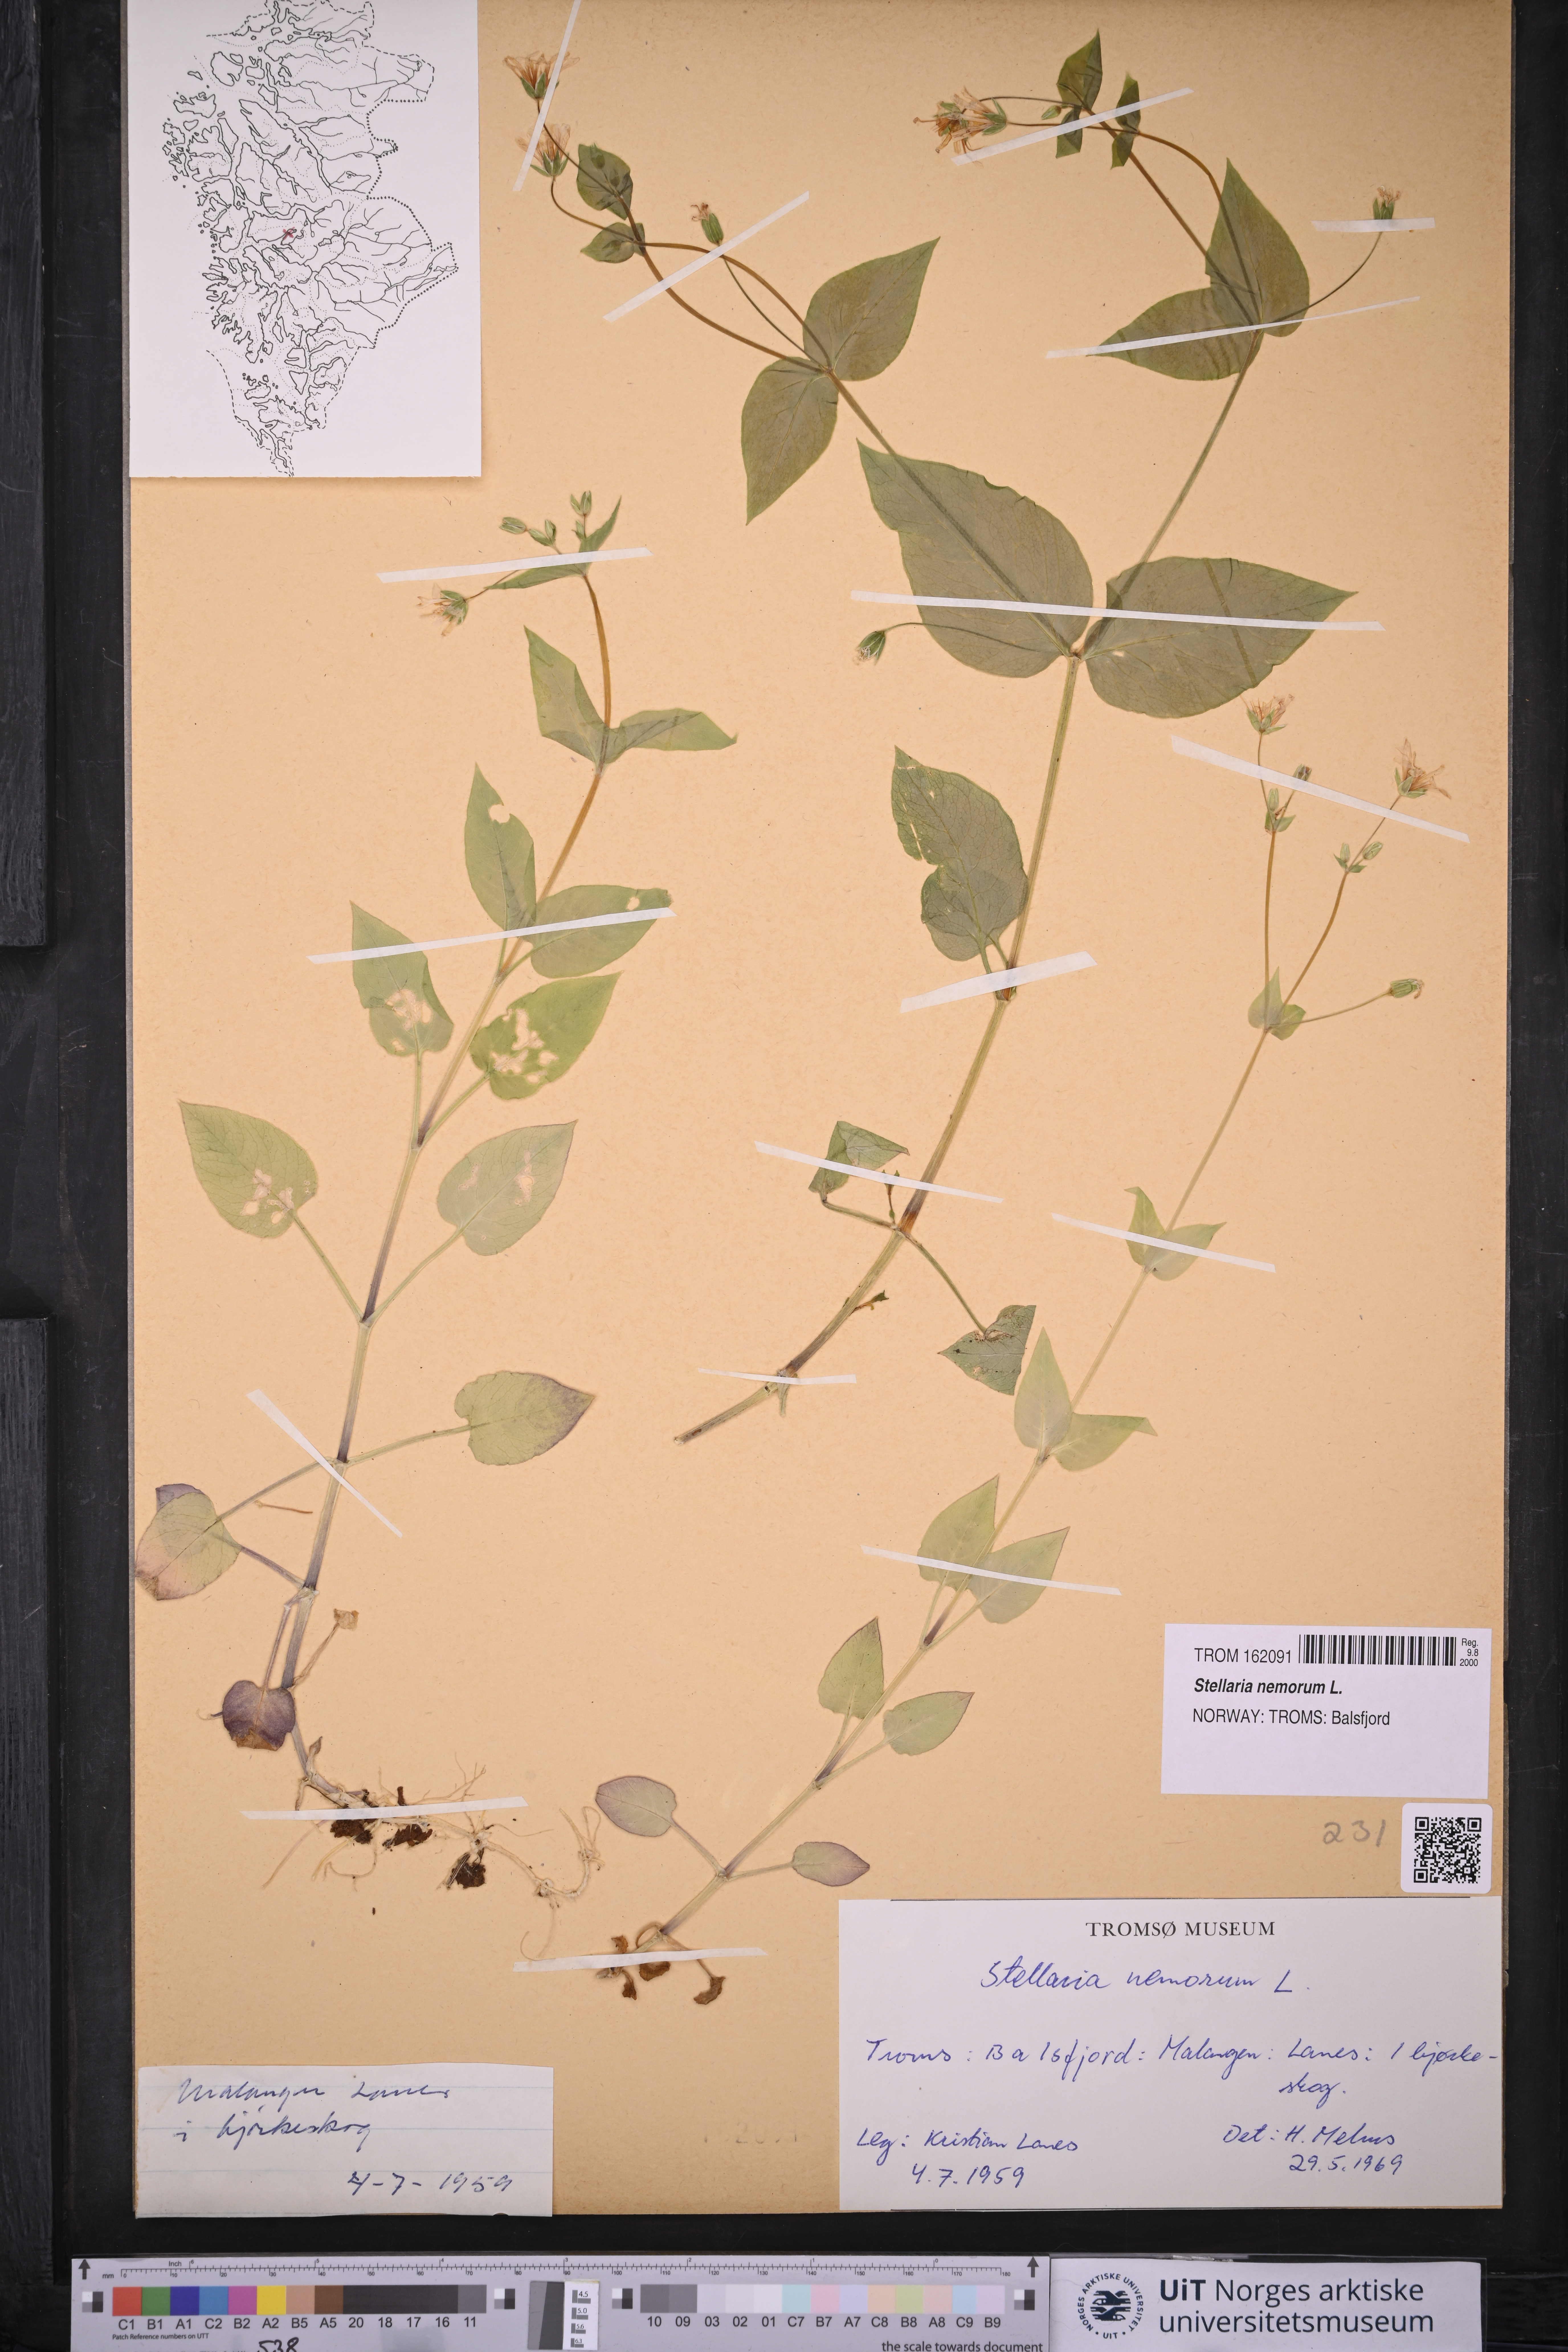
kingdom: Plantae
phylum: Tracheophyta
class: Magnoliopsida
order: Caryophyllales
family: Caryophyllaceae
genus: Stellaria
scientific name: Stellaria nemorum
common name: Wood stitchwort
